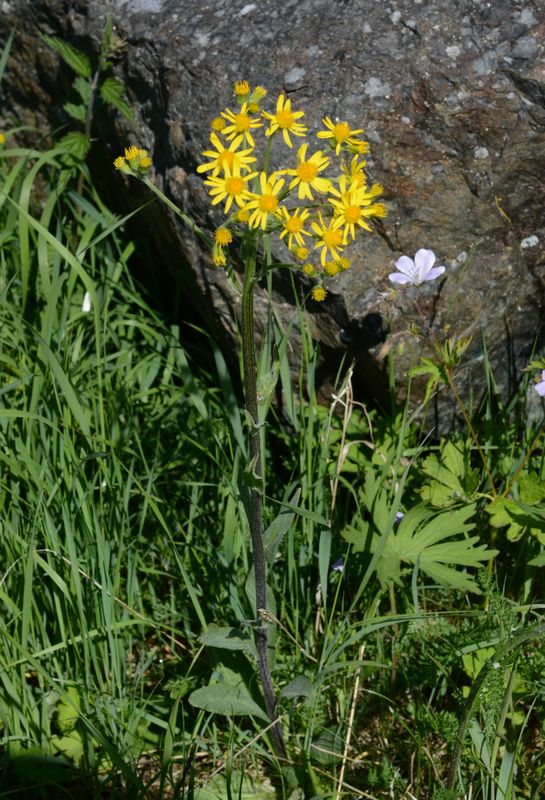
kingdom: Plantae
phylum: Tracheophyta
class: Magnoliopsida
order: Asterales
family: Asteraceae
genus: Tephroseris
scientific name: Tephroseris integrifolia
